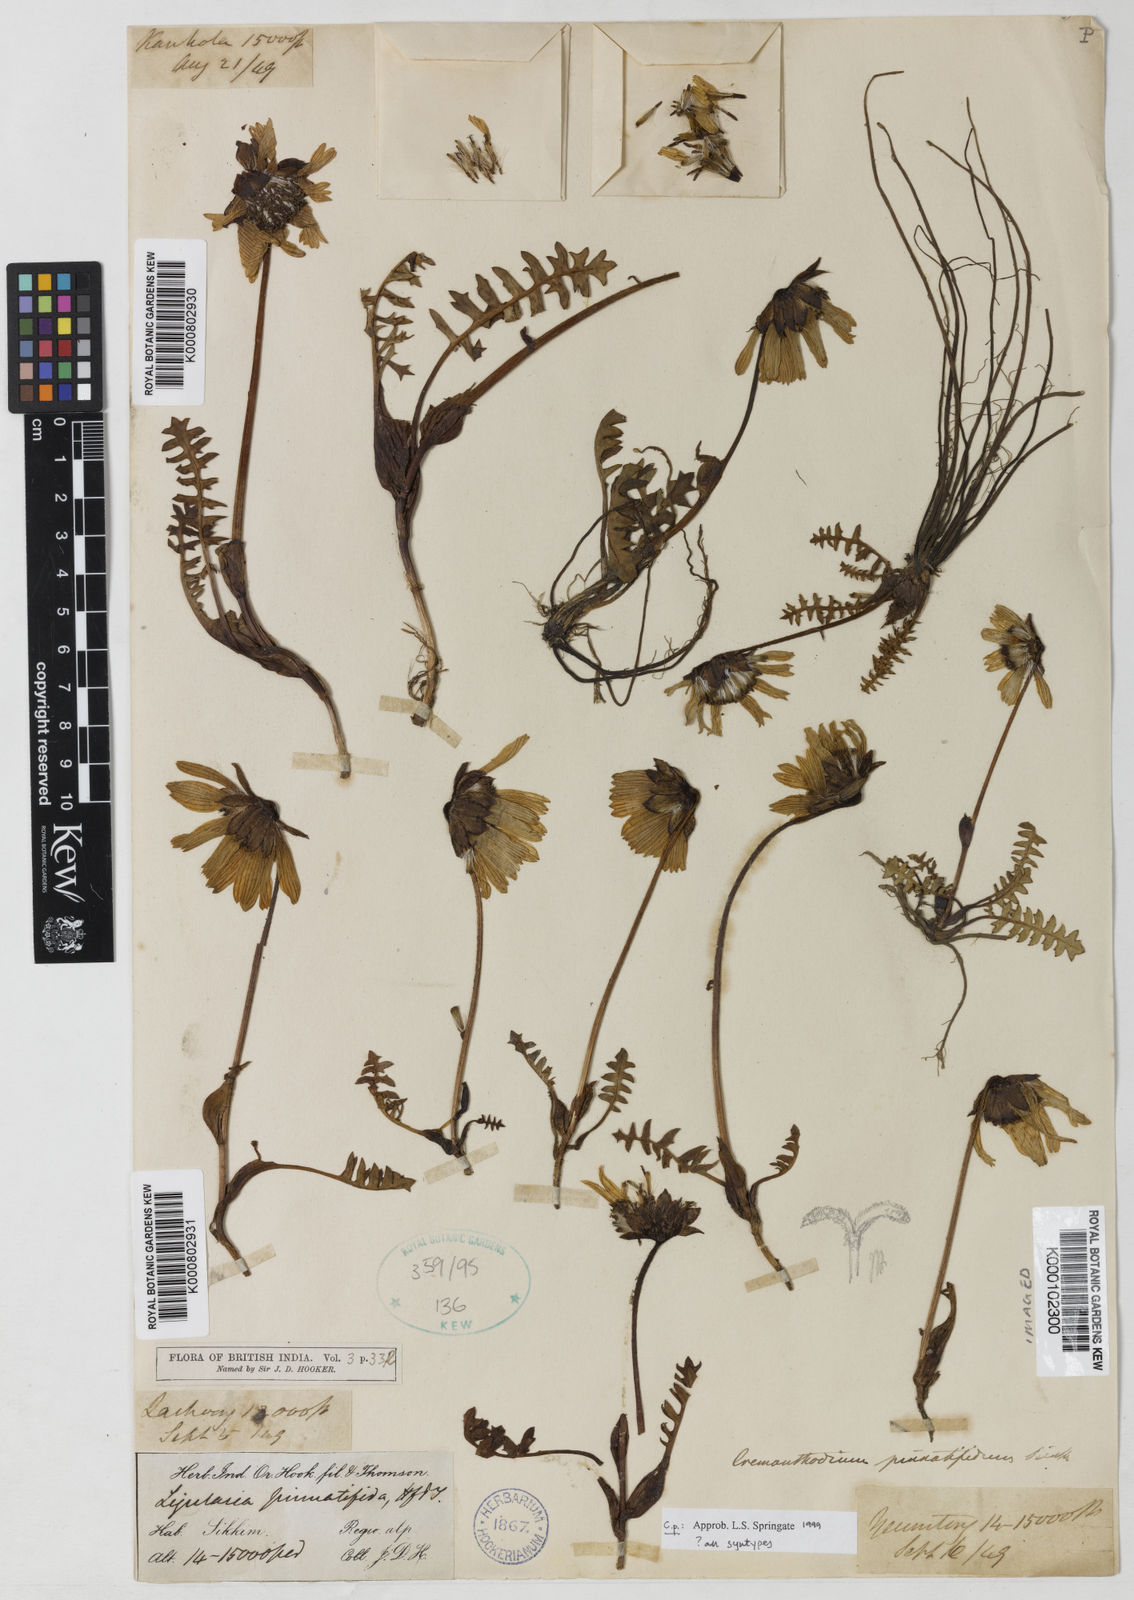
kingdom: Plantae
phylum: Tracheophyta
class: Magnoliopsida
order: Asterales
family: Asteraceae
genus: Cremanthodium
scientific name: Cremanthodium pinnatifidum
